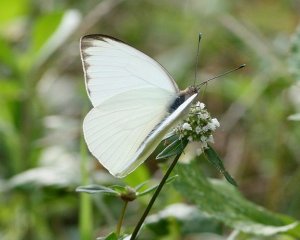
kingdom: Animalia
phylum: Arthropoda
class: Insecta
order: Lepidoptera
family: Pieridae
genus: Ascia
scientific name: Ascia monuste
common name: Great Southern White
